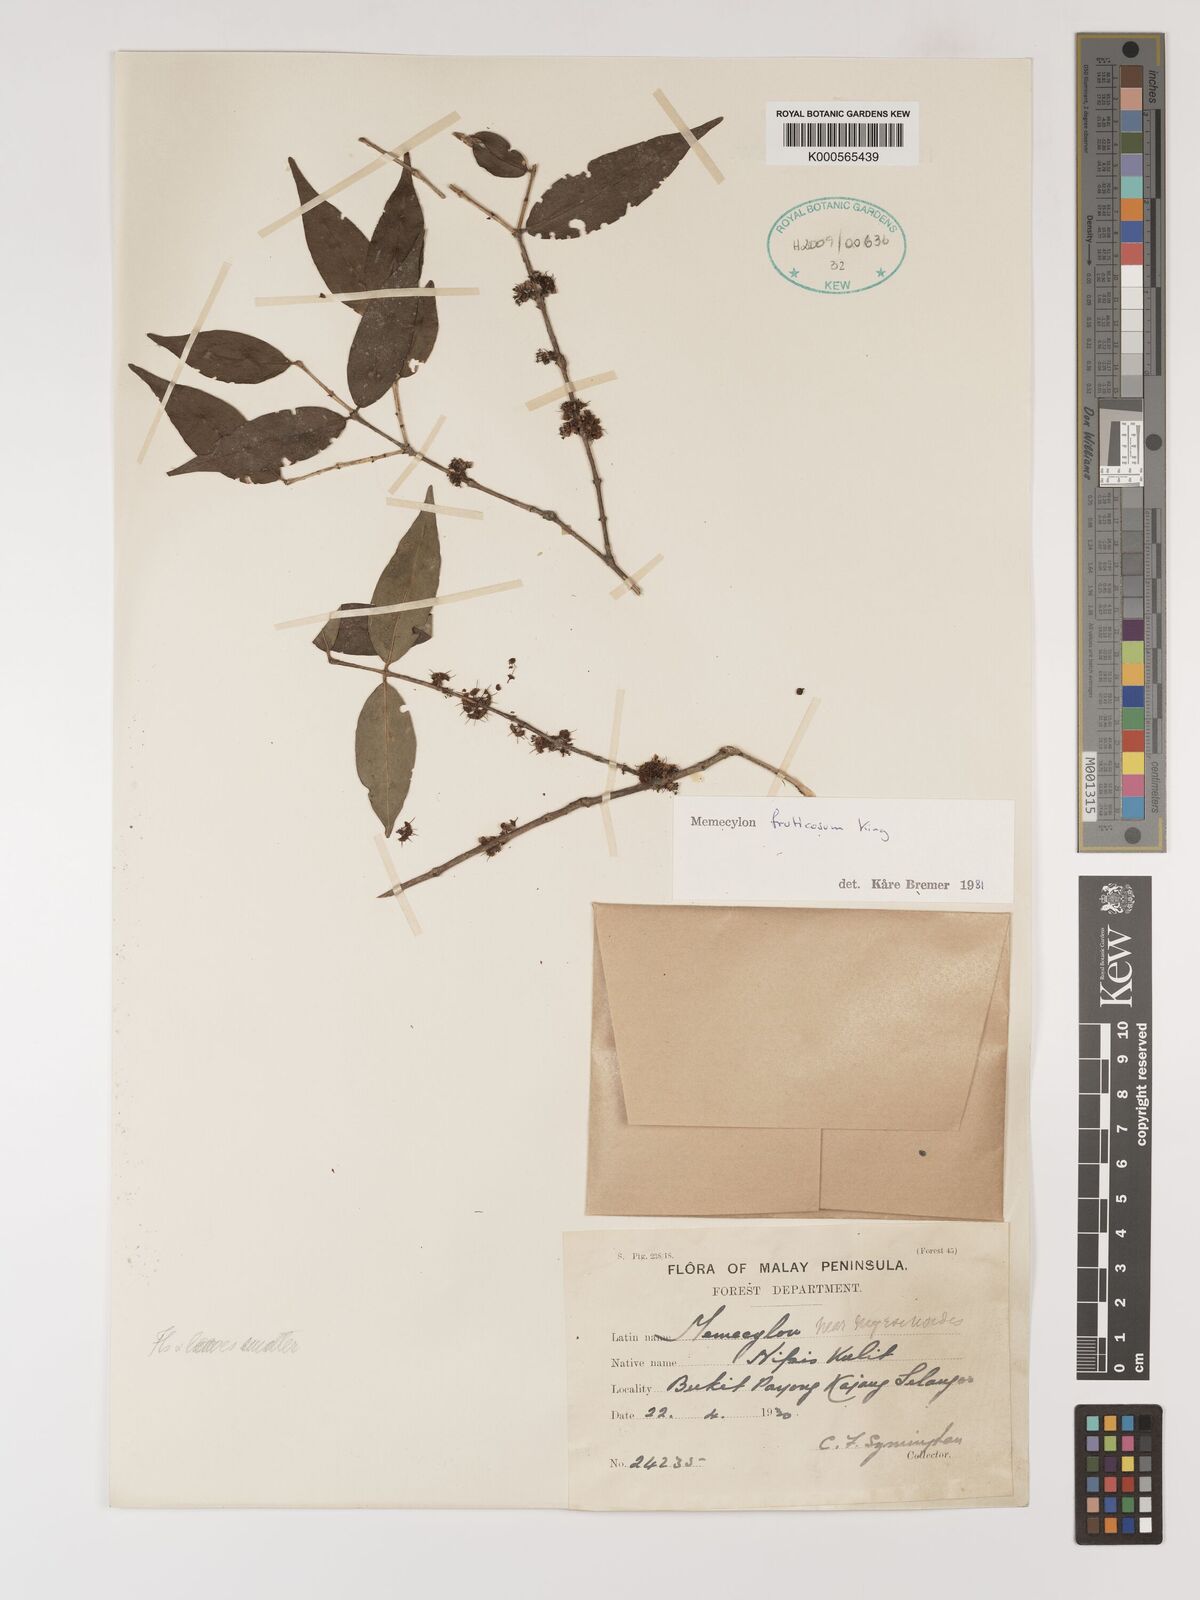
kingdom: Plantae
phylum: Tracheophyta
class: Magnoliopsida
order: Myrtales
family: Melastomataceae
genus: Memecylon
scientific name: Memecylon fruticosum
